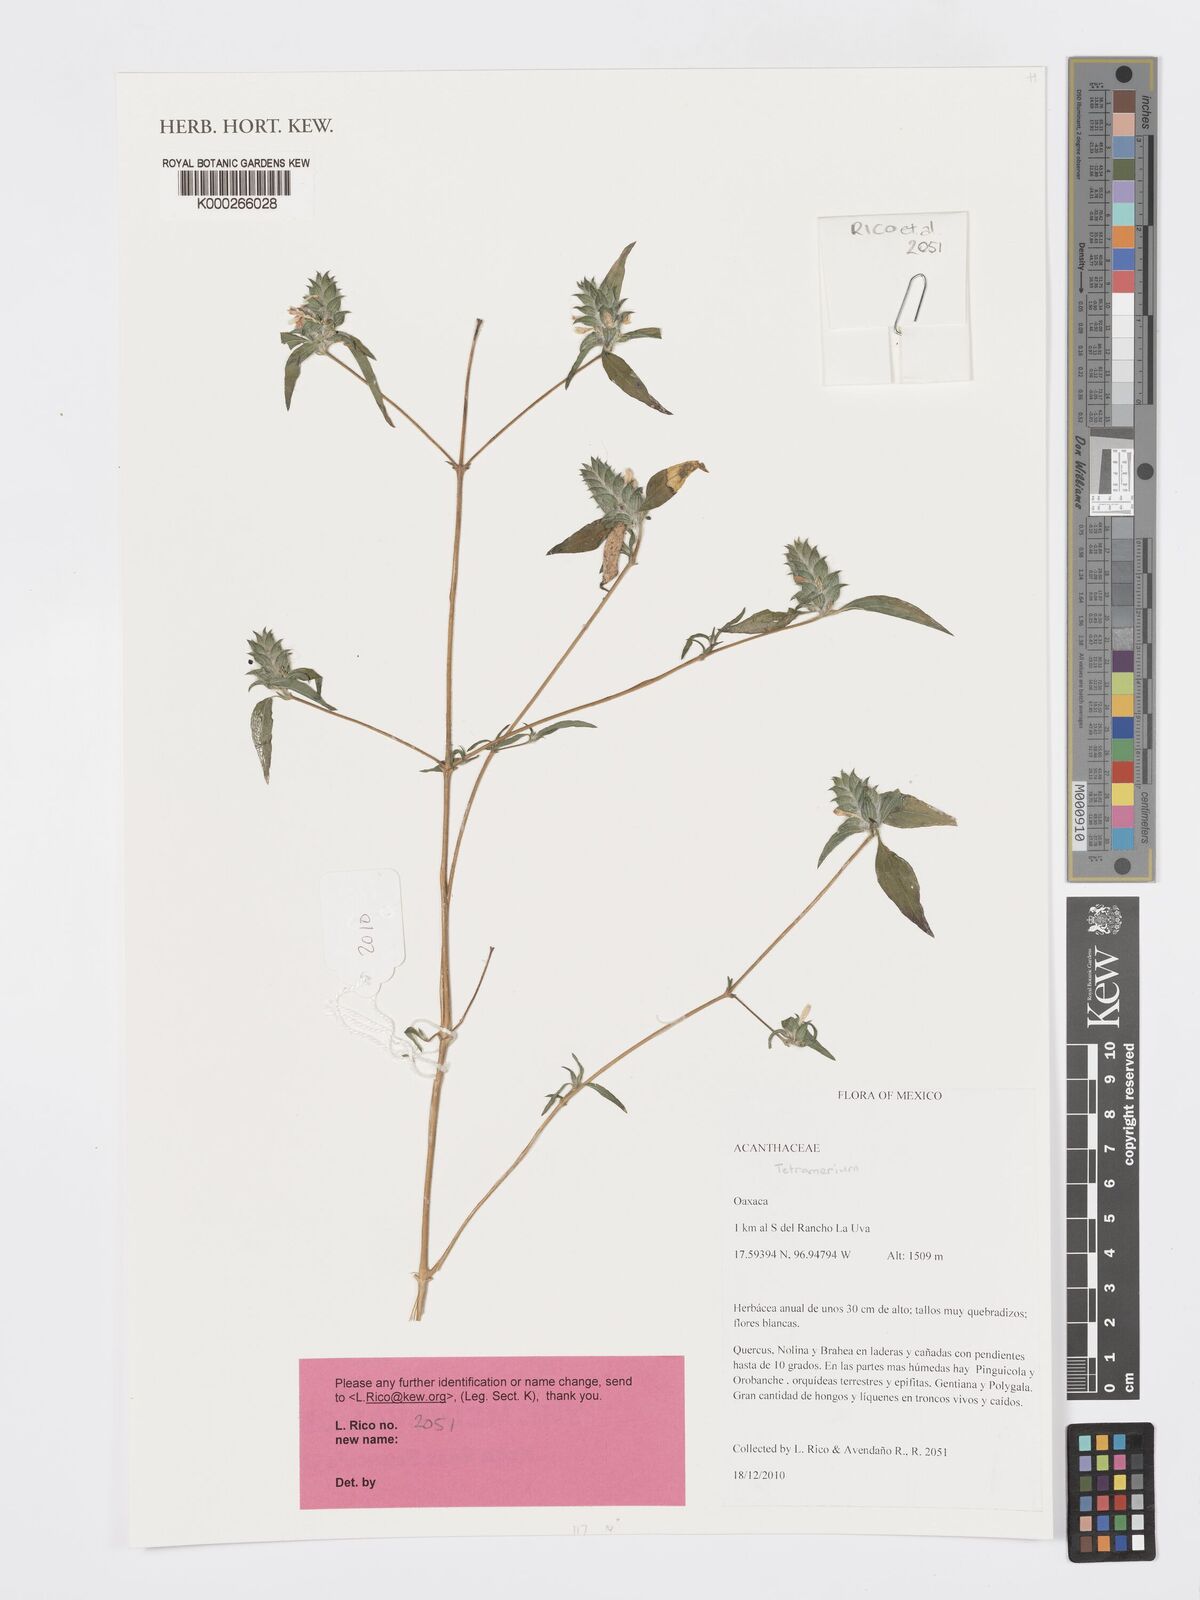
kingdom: Plantae
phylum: Tracheophyta
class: Magnoliopsida
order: Lamiales
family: Acanthaceae
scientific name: Acanthaceae
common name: Acanthaceae
